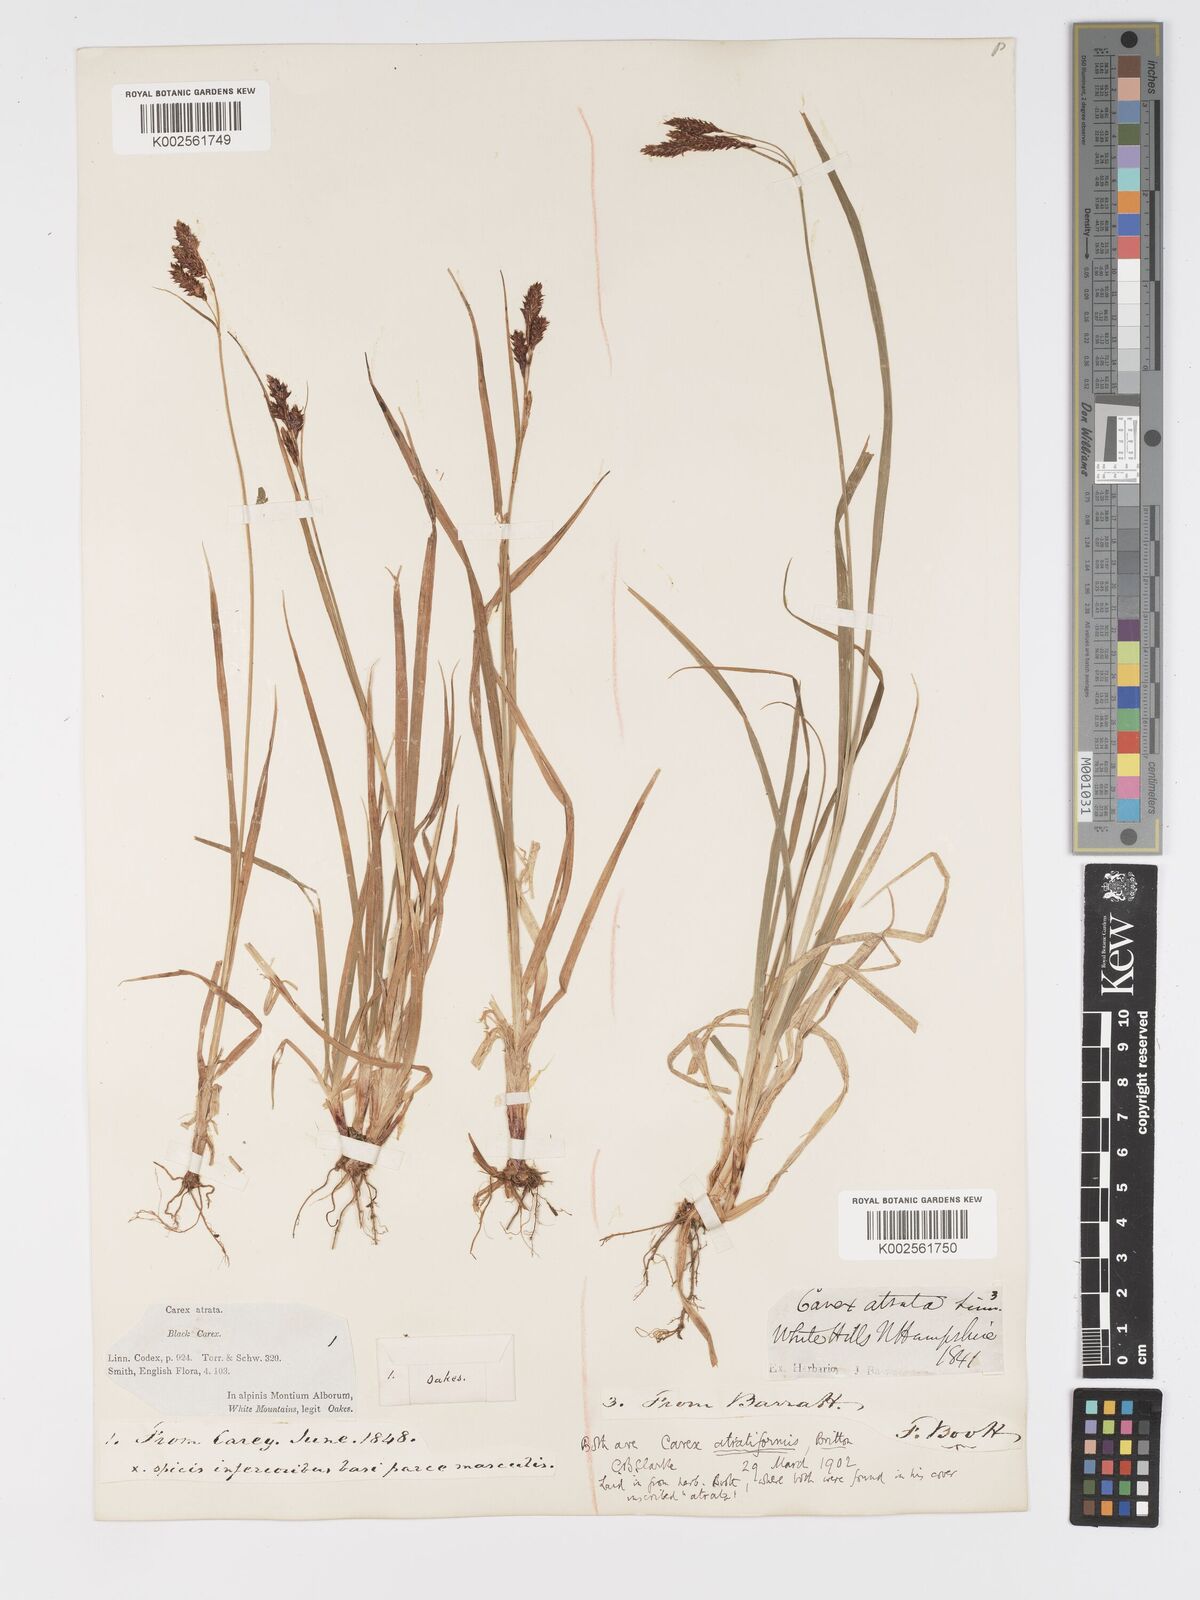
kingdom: Plantae
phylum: Tracheophyta
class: Liliopsida
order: Poales
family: Cyperaceae
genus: Carex
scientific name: Carex atratiformis
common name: Black sedge
